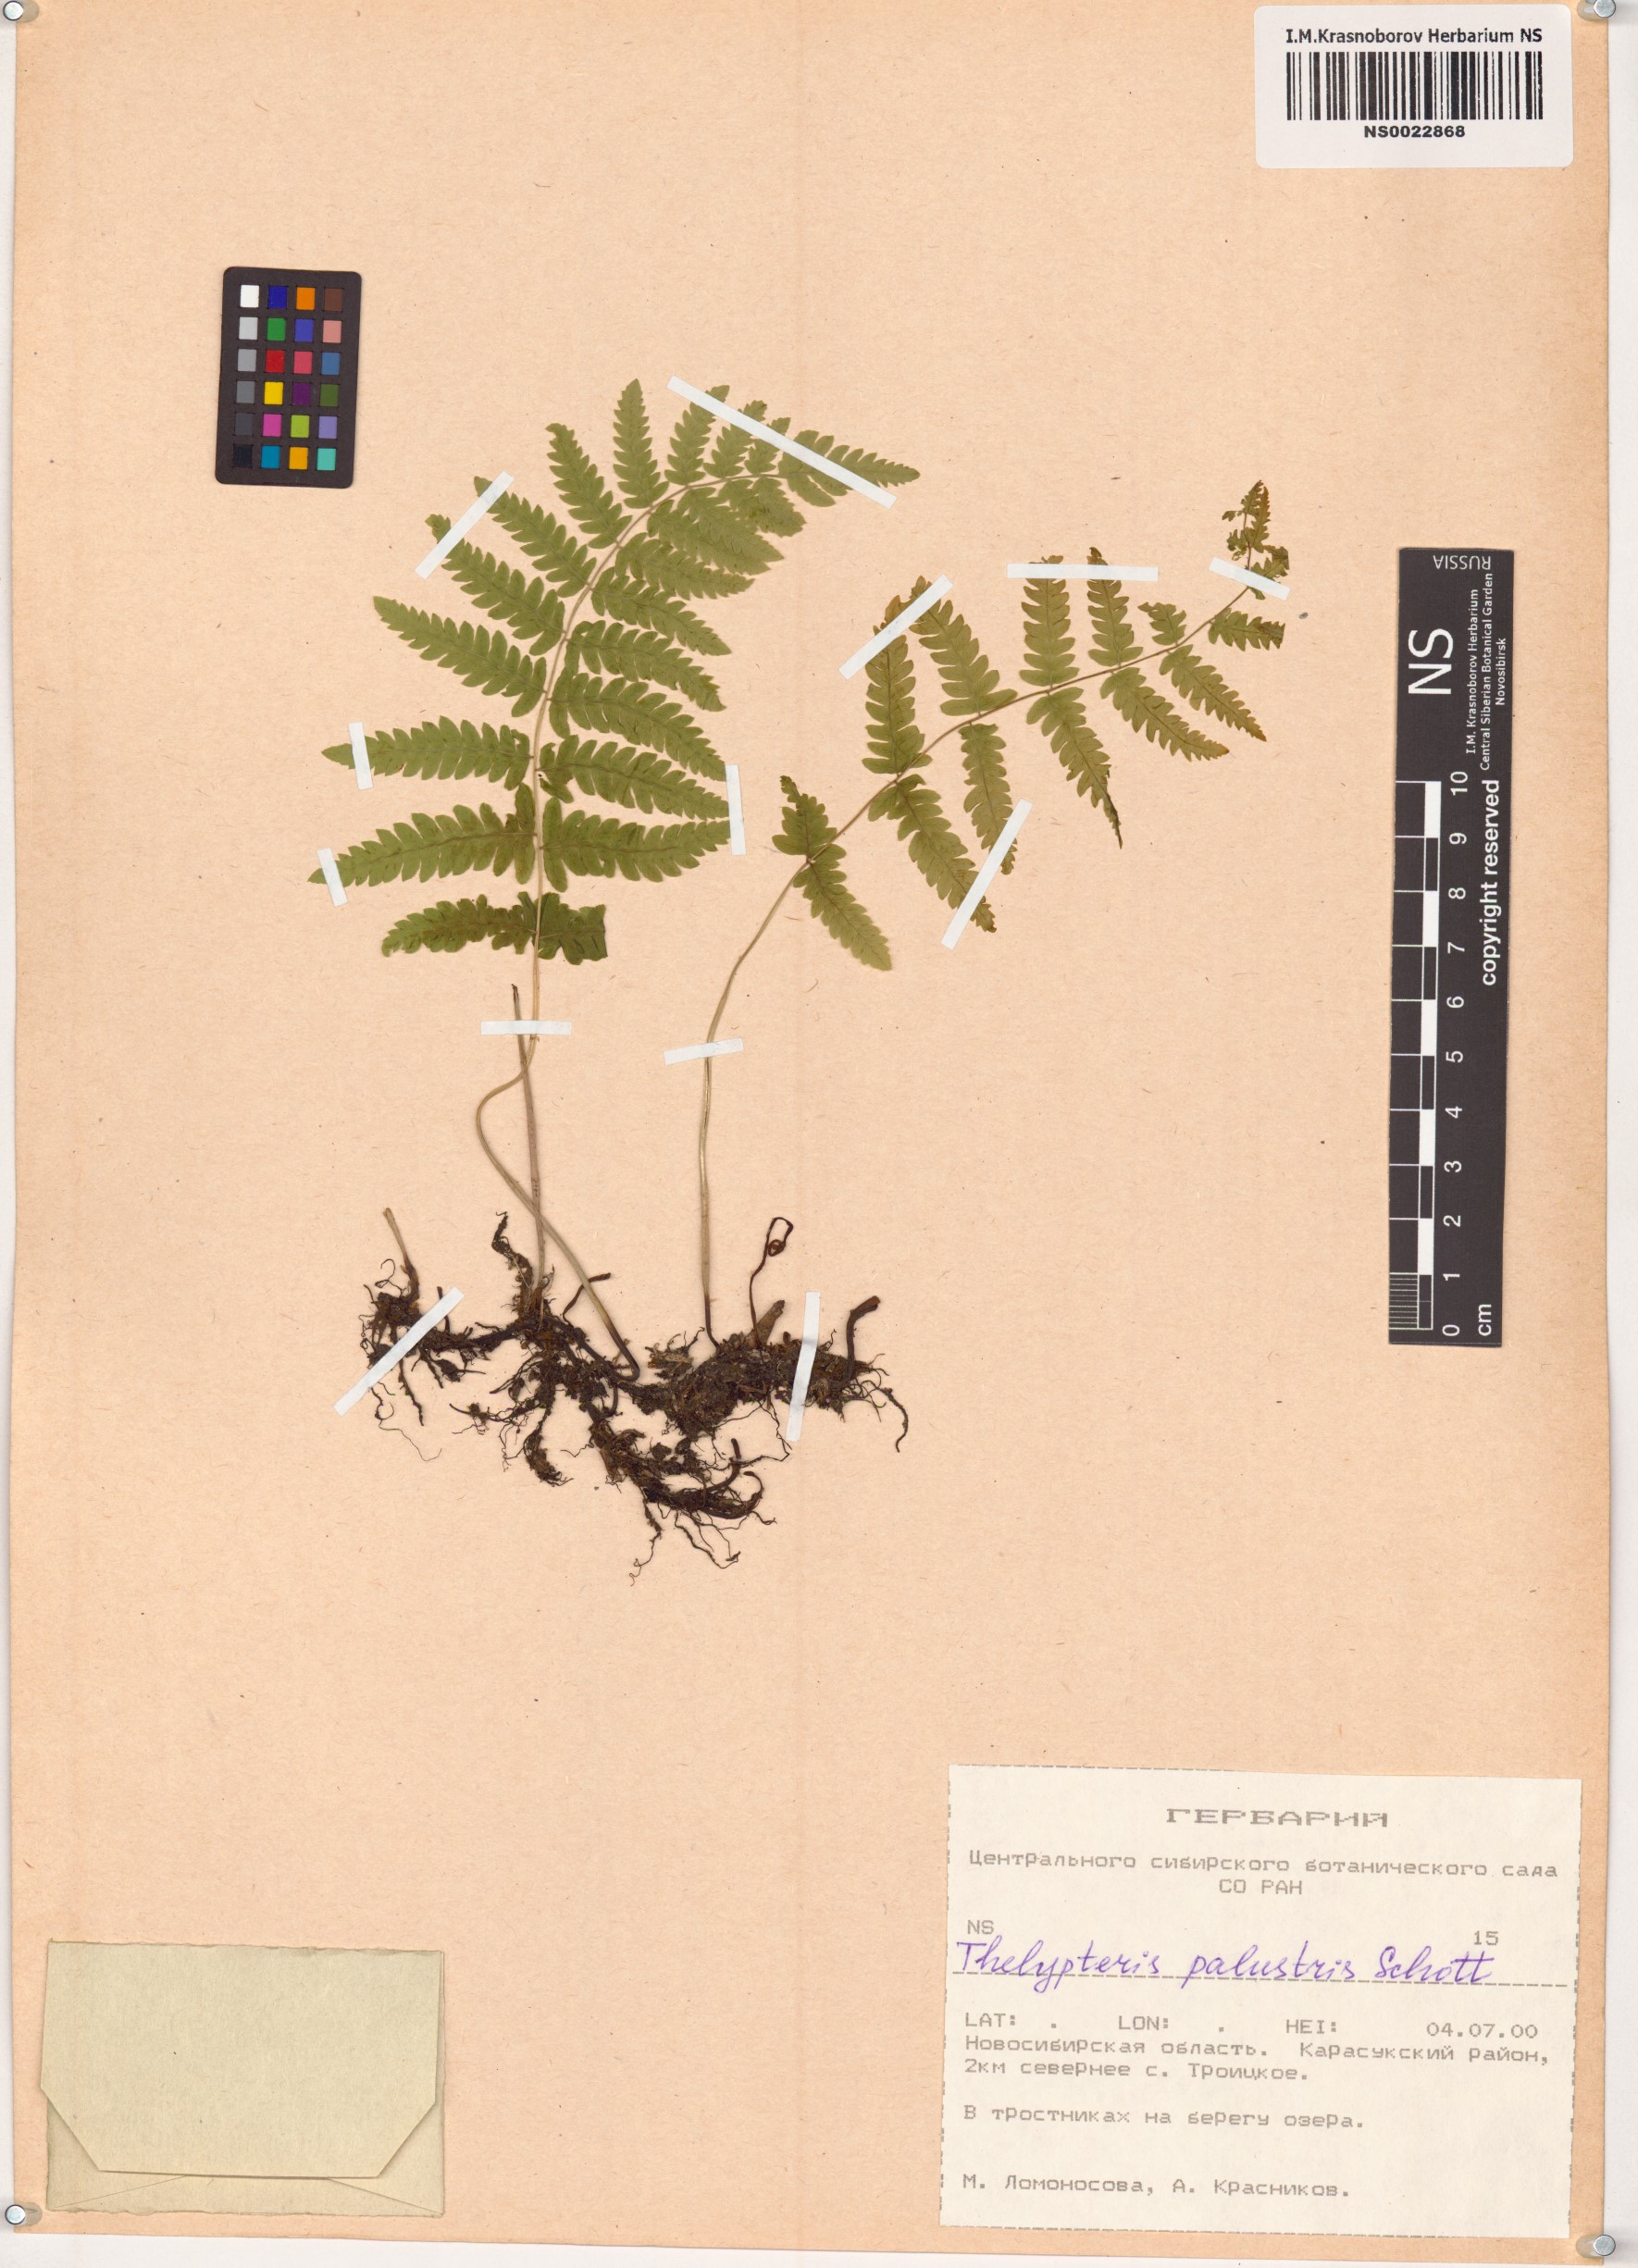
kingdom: Plantae
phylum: Tracheophyta
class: Polypodiopsida
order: Polypodiales
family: Thelypteridaceae
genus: Thelypteris
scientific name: Thelypteris palustris
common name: Marsh fern
